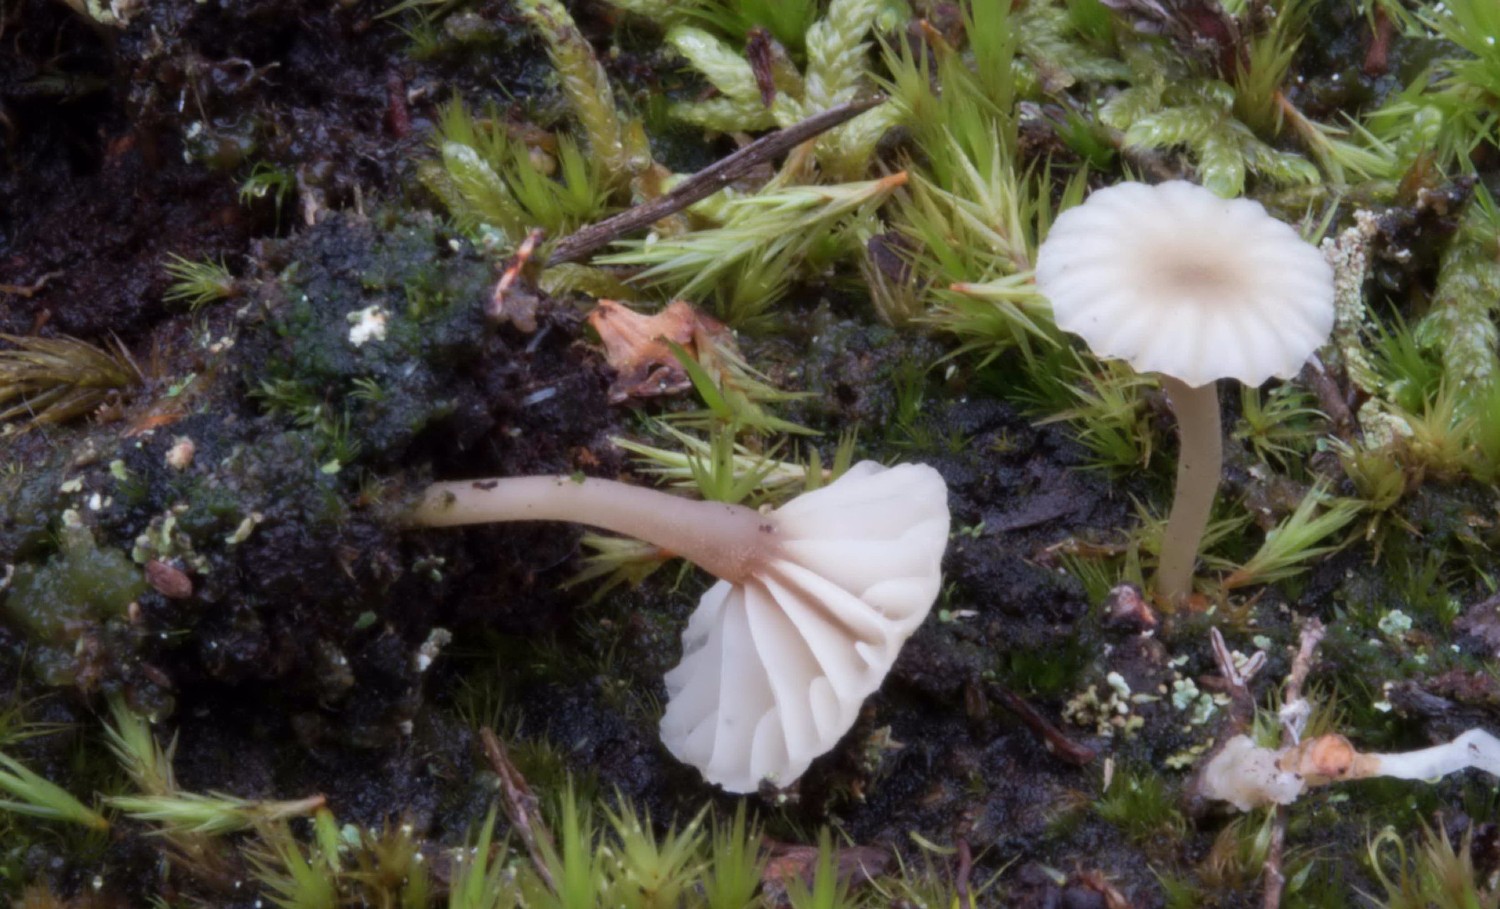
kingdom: Fungi
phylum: Basidiomycota
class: Agaricomycetes
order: Agaricales
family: Hygrophoraceae
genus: Lichenomphalia
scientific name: Lichenomphalia umbellifera
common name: tørve-lavhat
